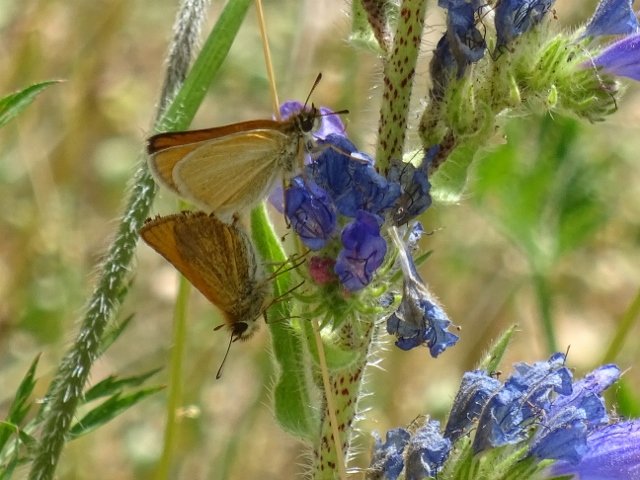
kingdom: Animalia
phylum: Arthropoda
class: Insecta
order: Lepidoptera
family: Hesperiidae
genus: Thymelicus
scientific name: Thymelicus lineola
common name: European Skipper
